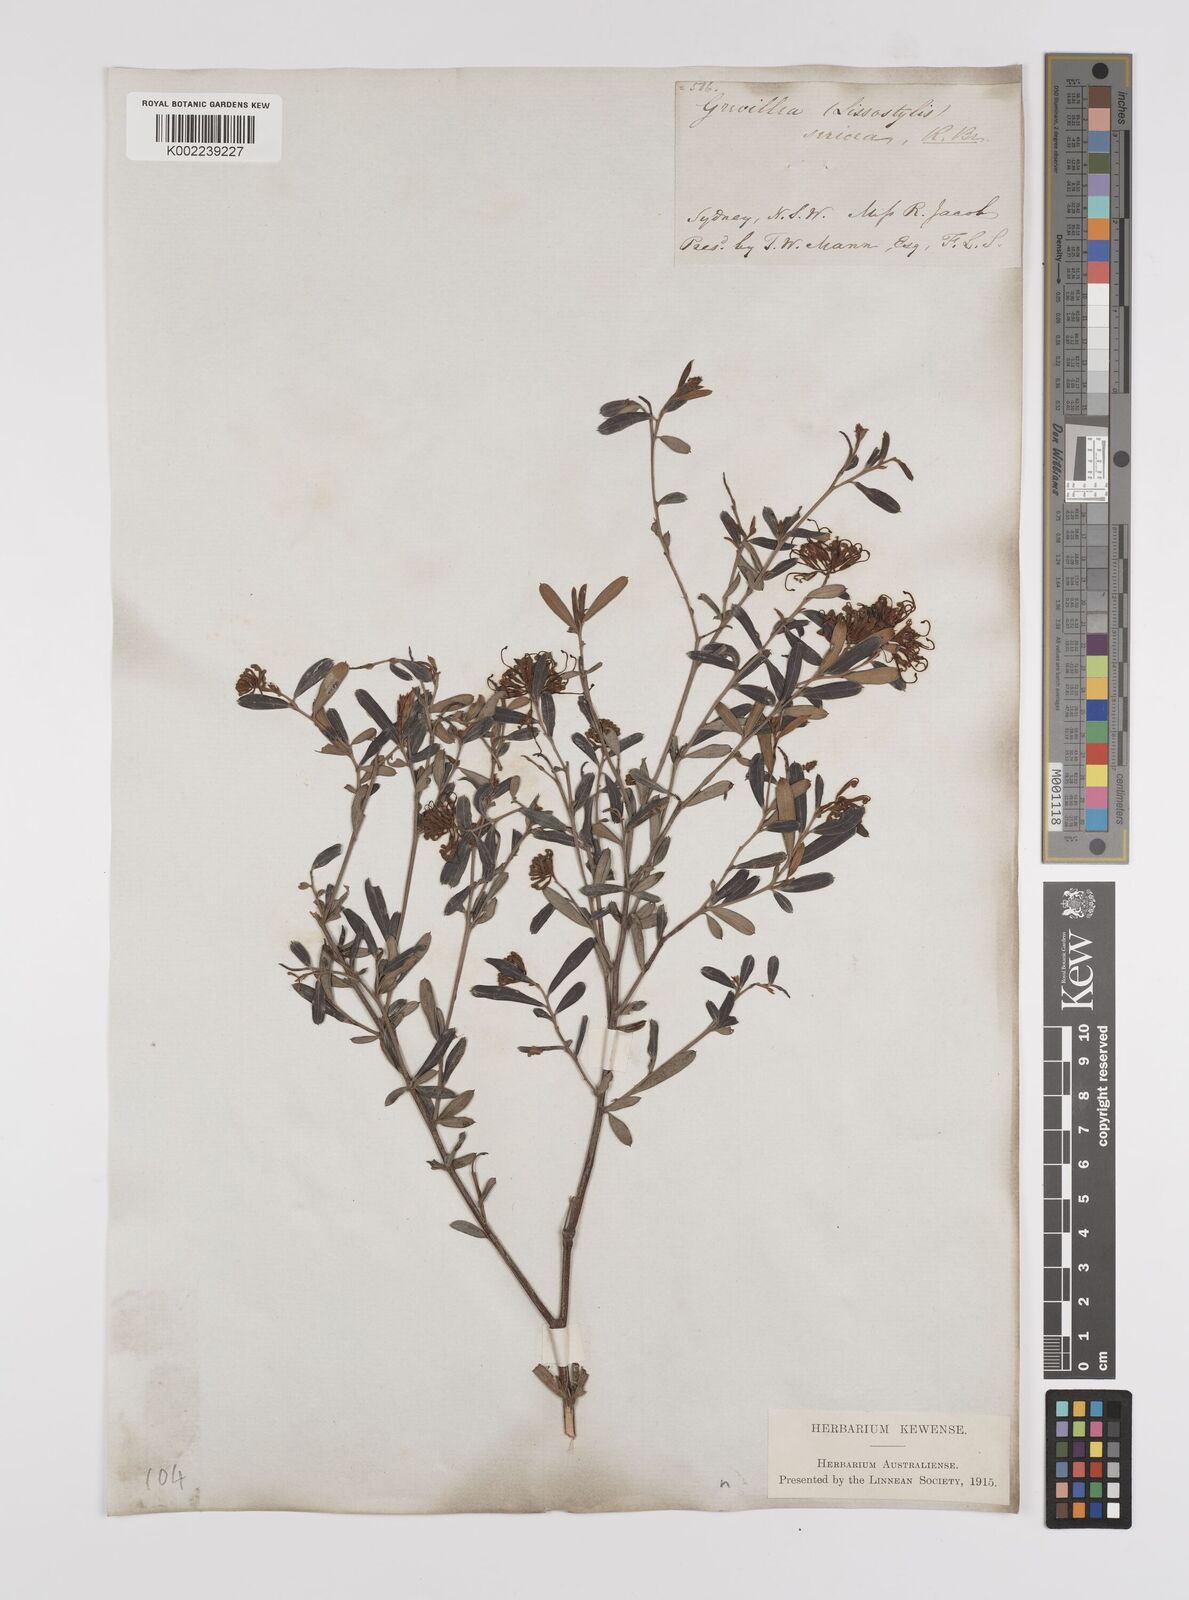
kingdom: Plantae
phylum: Tracheophyta
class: Magnoliopsida
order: Proteales
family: Proteaceae
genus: Grevillea
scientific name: Grevillea sericea
